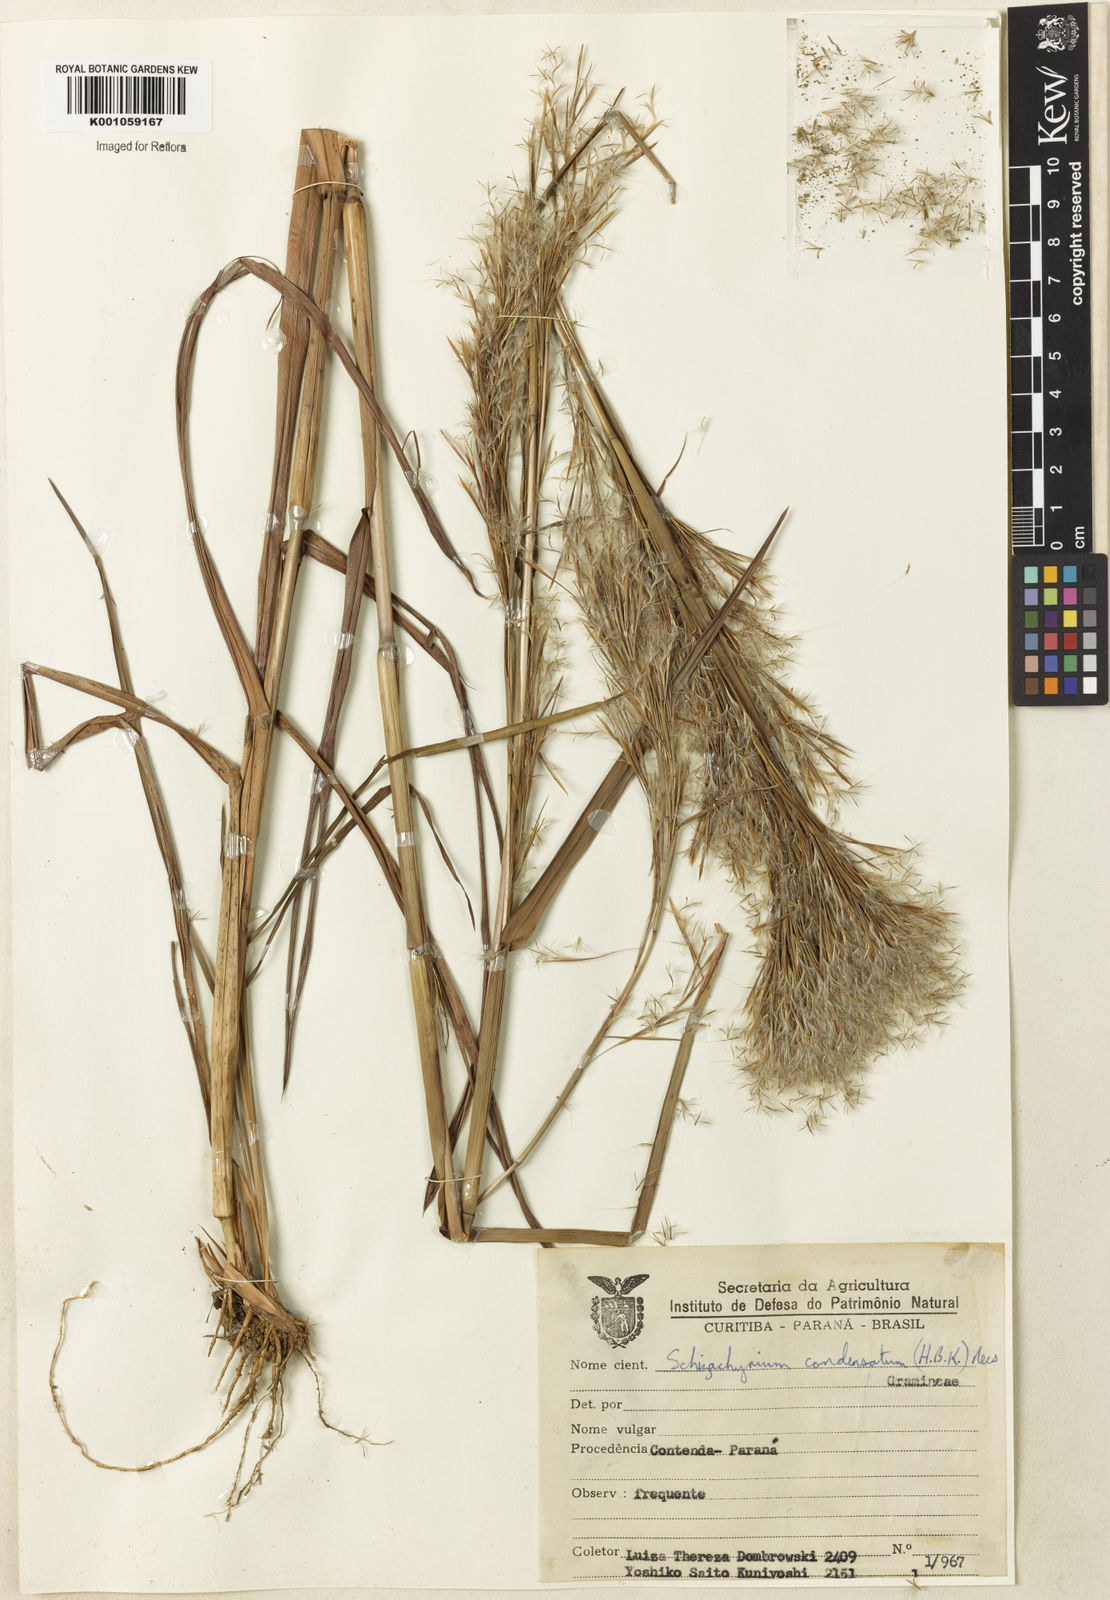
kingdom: Plantae
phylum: Tracheophyta
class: Liliopsida
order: Poales
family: Poaceae
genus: Schizachyrium
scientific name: Schizachyrium condensatum
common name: Bush beardgrass
